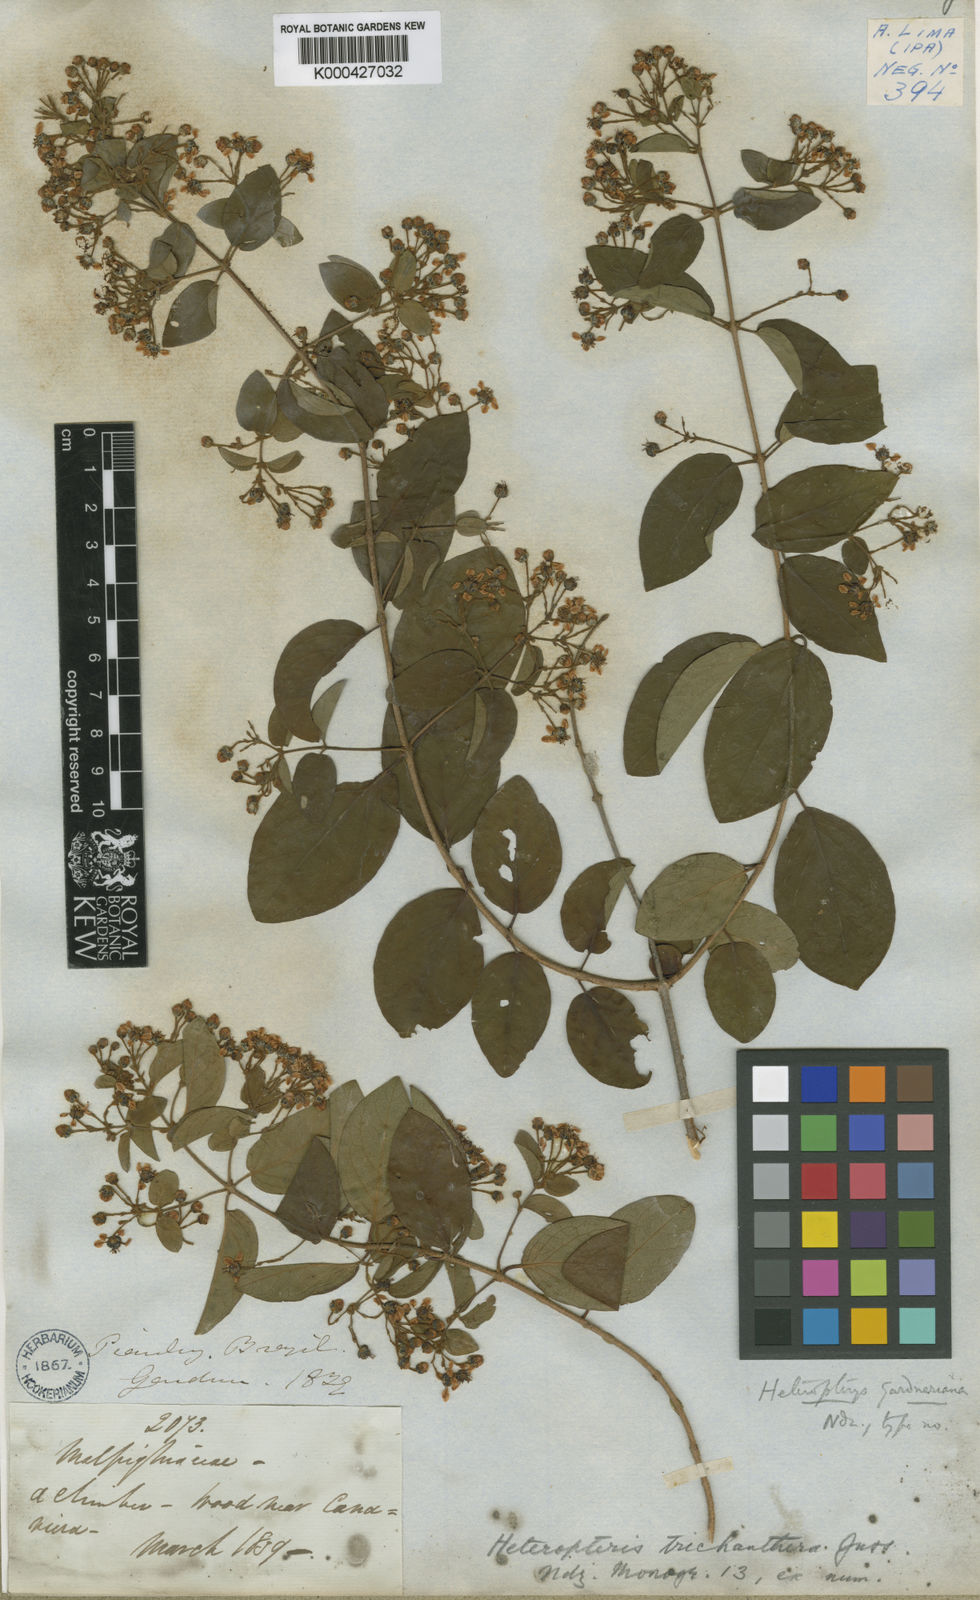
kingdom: Plantae
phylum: Tracheophyta
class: Magnoliopsida
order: Malpighiales
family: Malpighiaceae
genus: Heteropterys
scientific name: Heteropterys trichanthera
